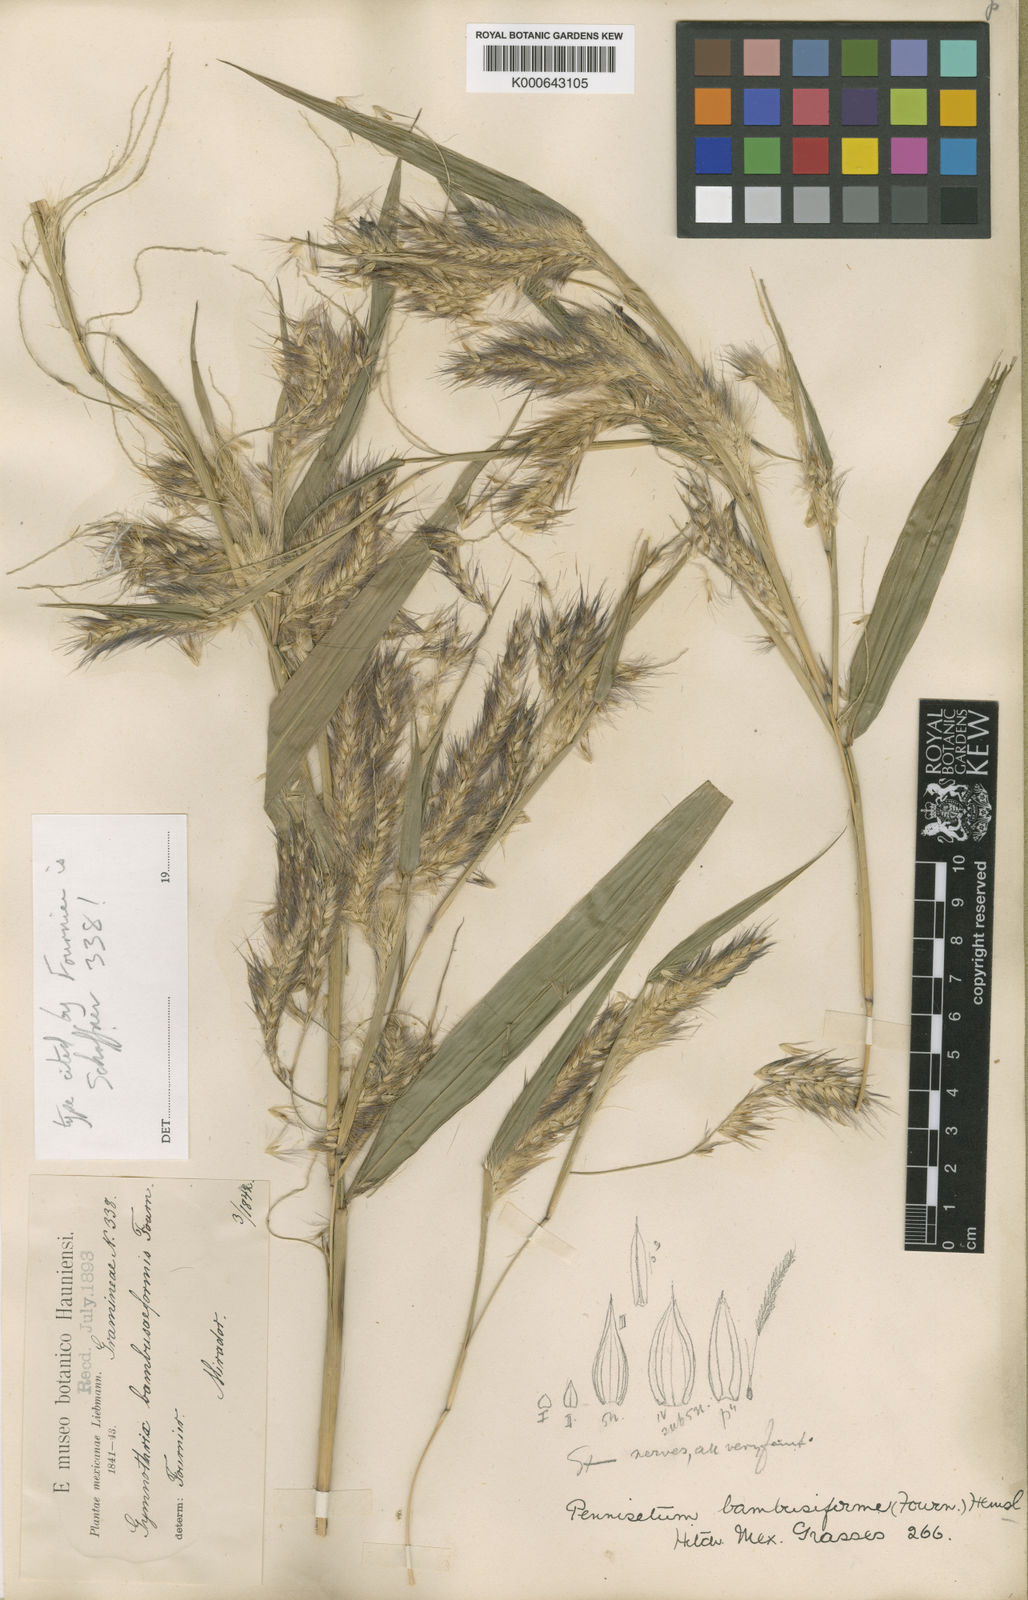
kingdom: Plantae
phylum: Tracheophyta
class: Liliopsida
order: Poales
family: Poaceae
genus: Cenchrus
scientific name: Cenchrus Pennisetum spec
